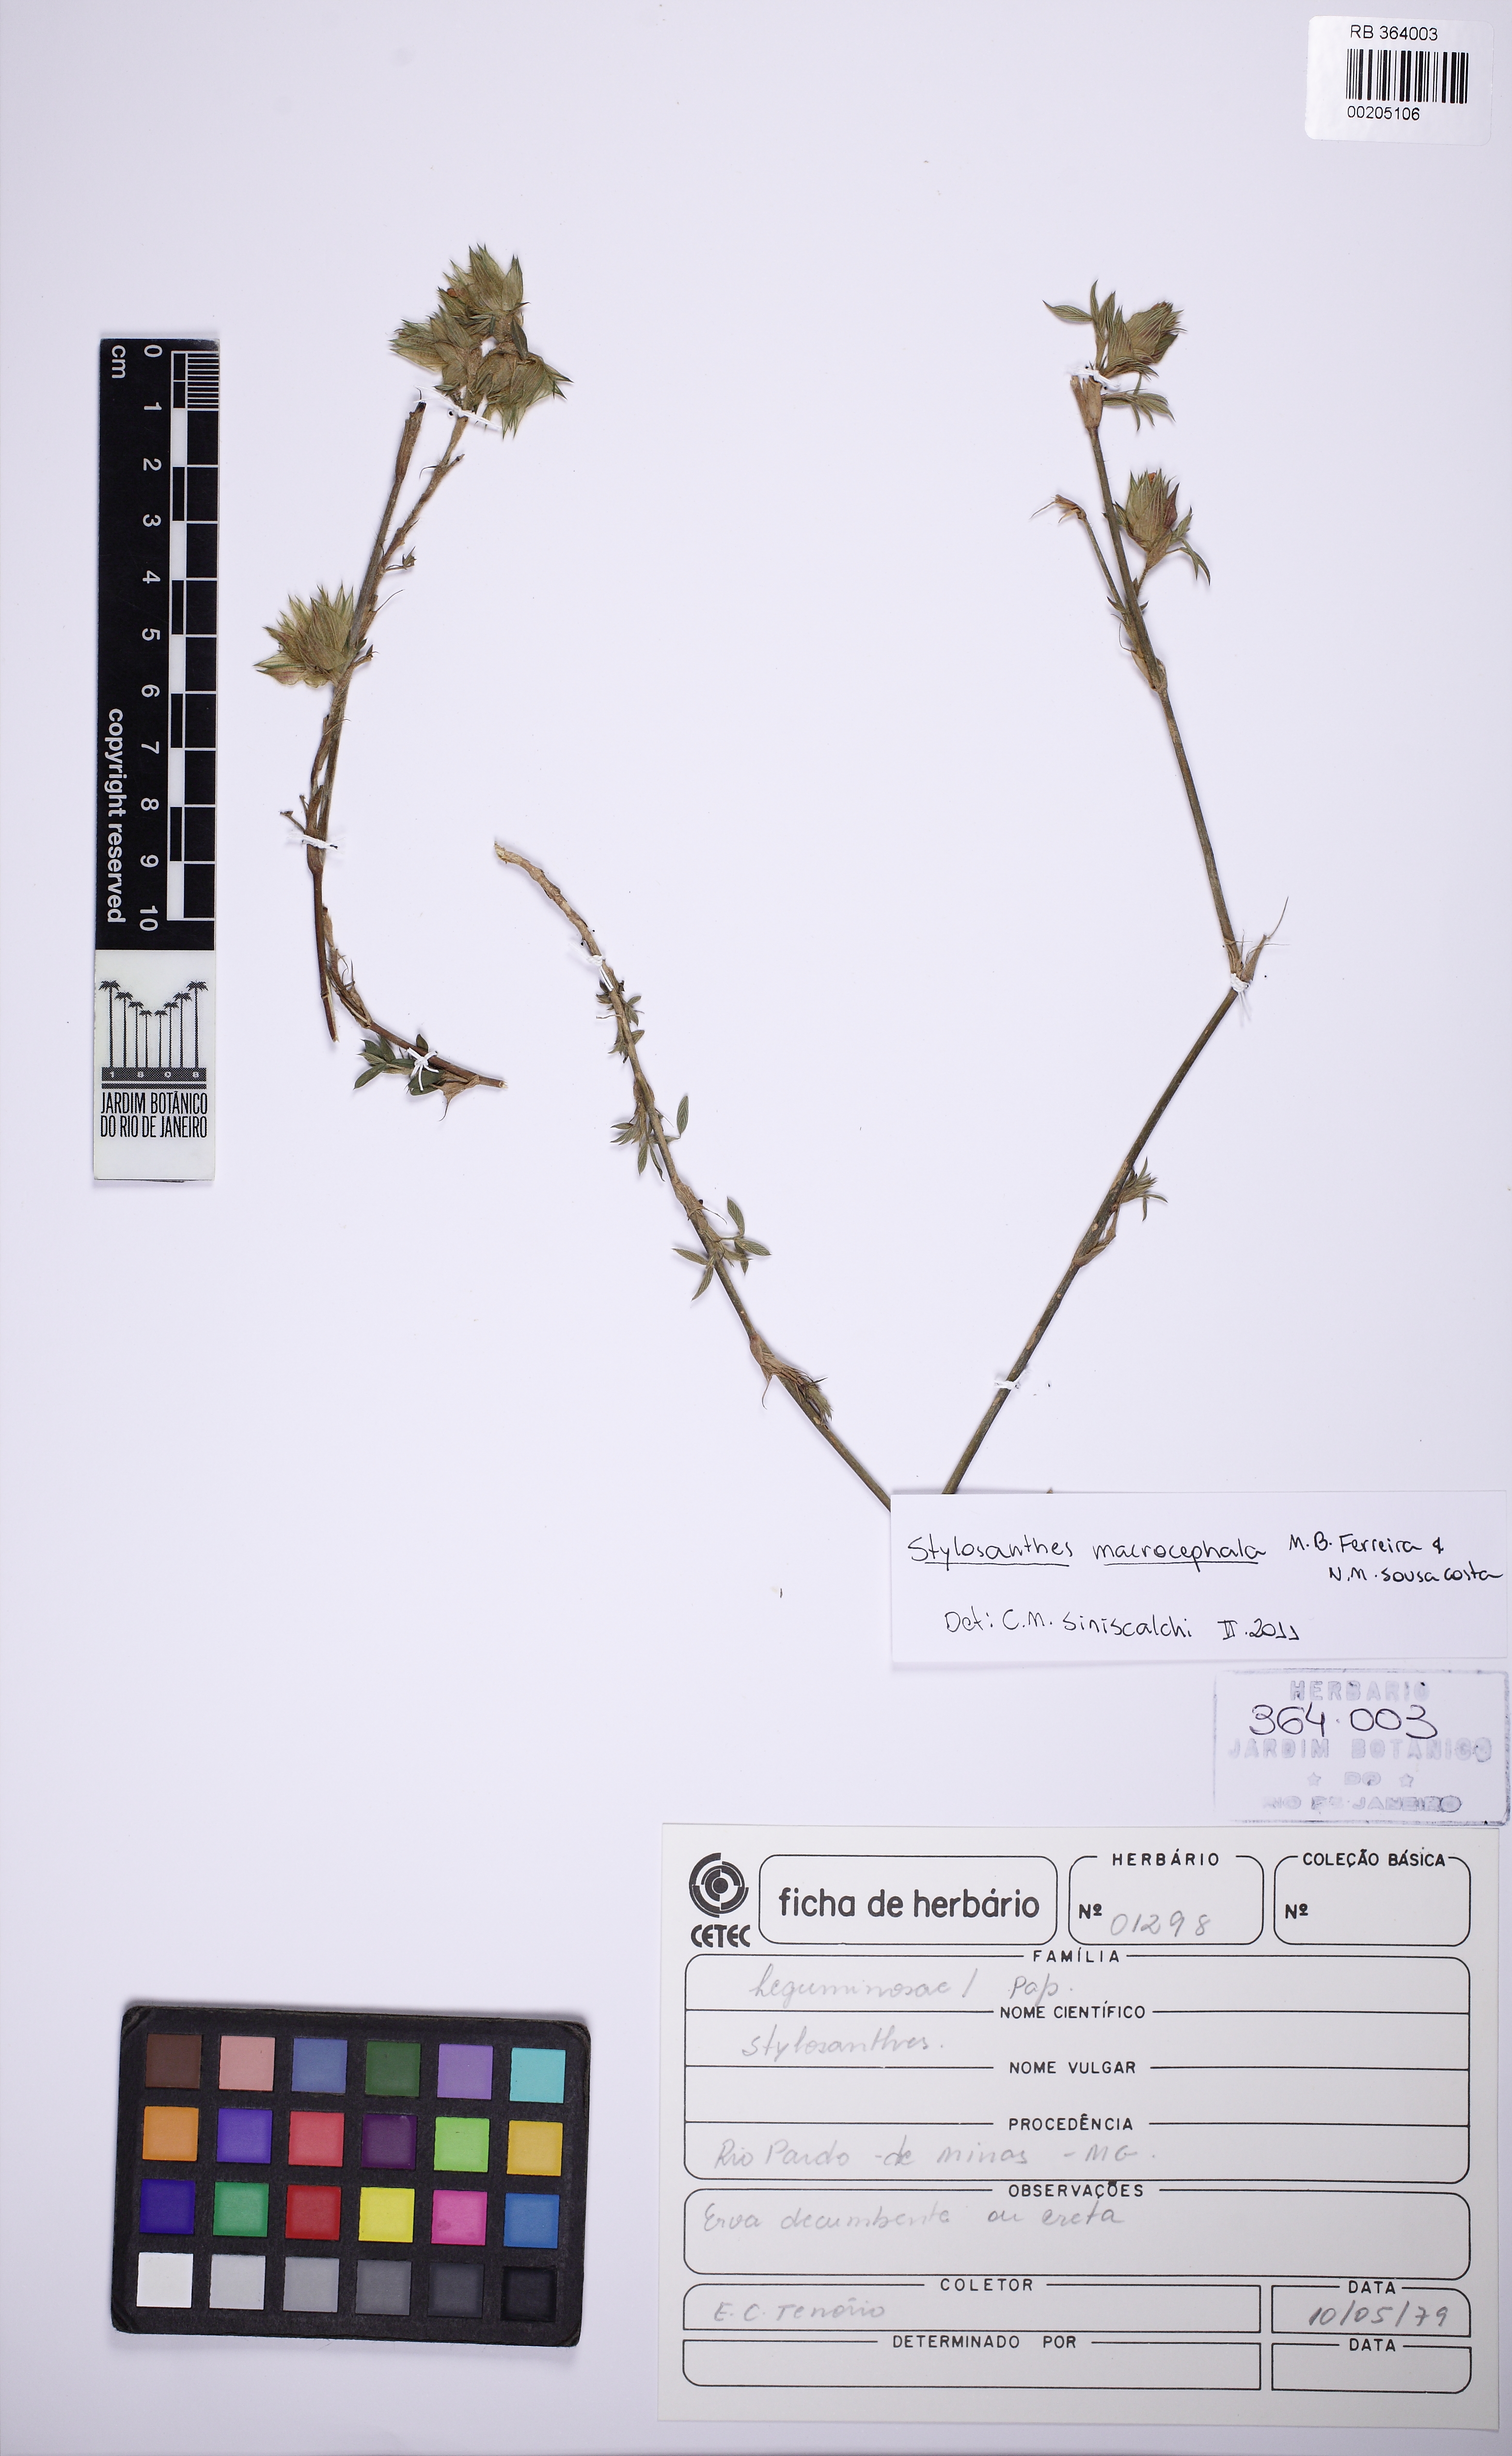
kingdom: Plantae
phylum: Tracheophyta
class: Magnoliopsida
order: Fabales
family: Fabaceae
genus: Stylosanthes
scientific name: Stylosanthes macrocephala
